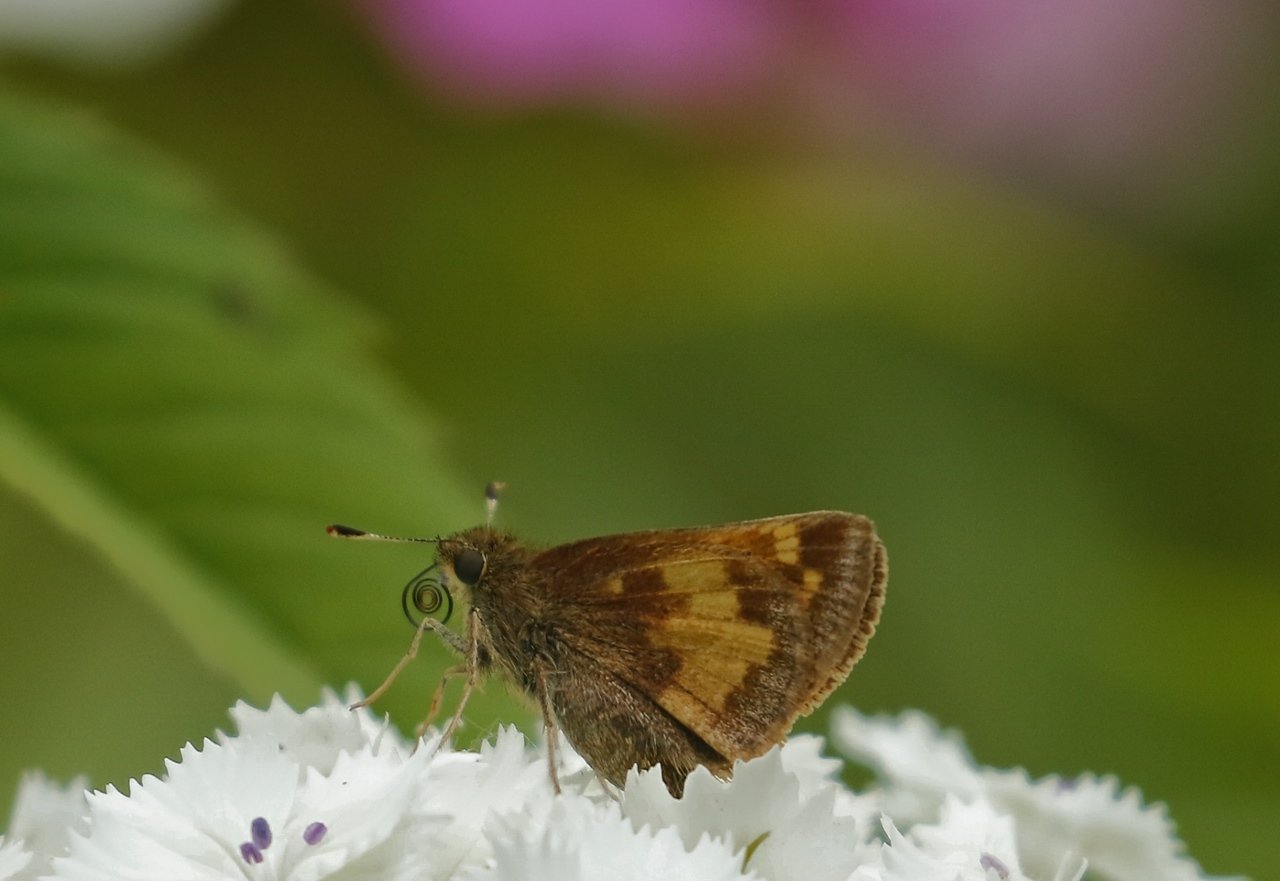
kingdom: Animalia
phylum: Arthropoda
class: Insecta
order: Lepidoptera
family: Hesperiidae
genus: Lon
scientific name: Lon hobomok
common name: Hobomok Skipper
